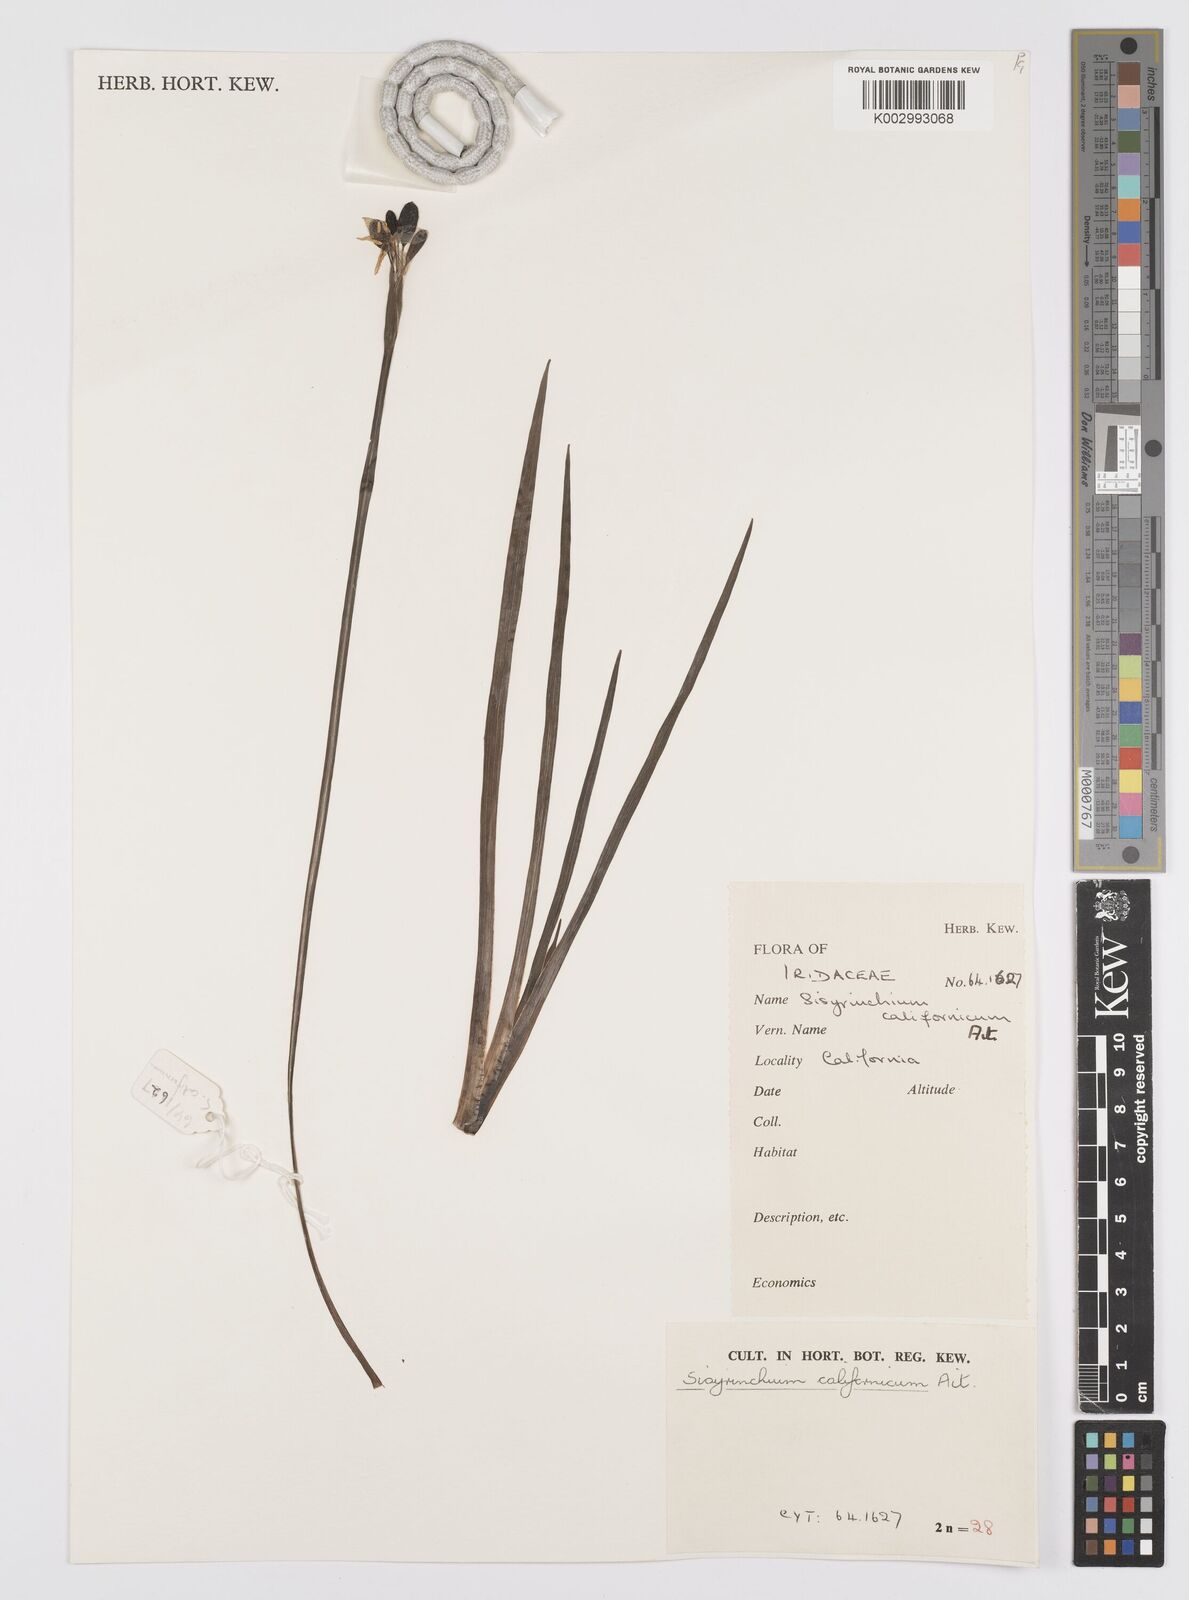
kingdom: Plantae
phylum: Tracheophyta
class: Liliopsida
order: Asparagales
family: Iridaceae
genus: Sisyrinchium
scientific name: Sisyrinchium californicum
